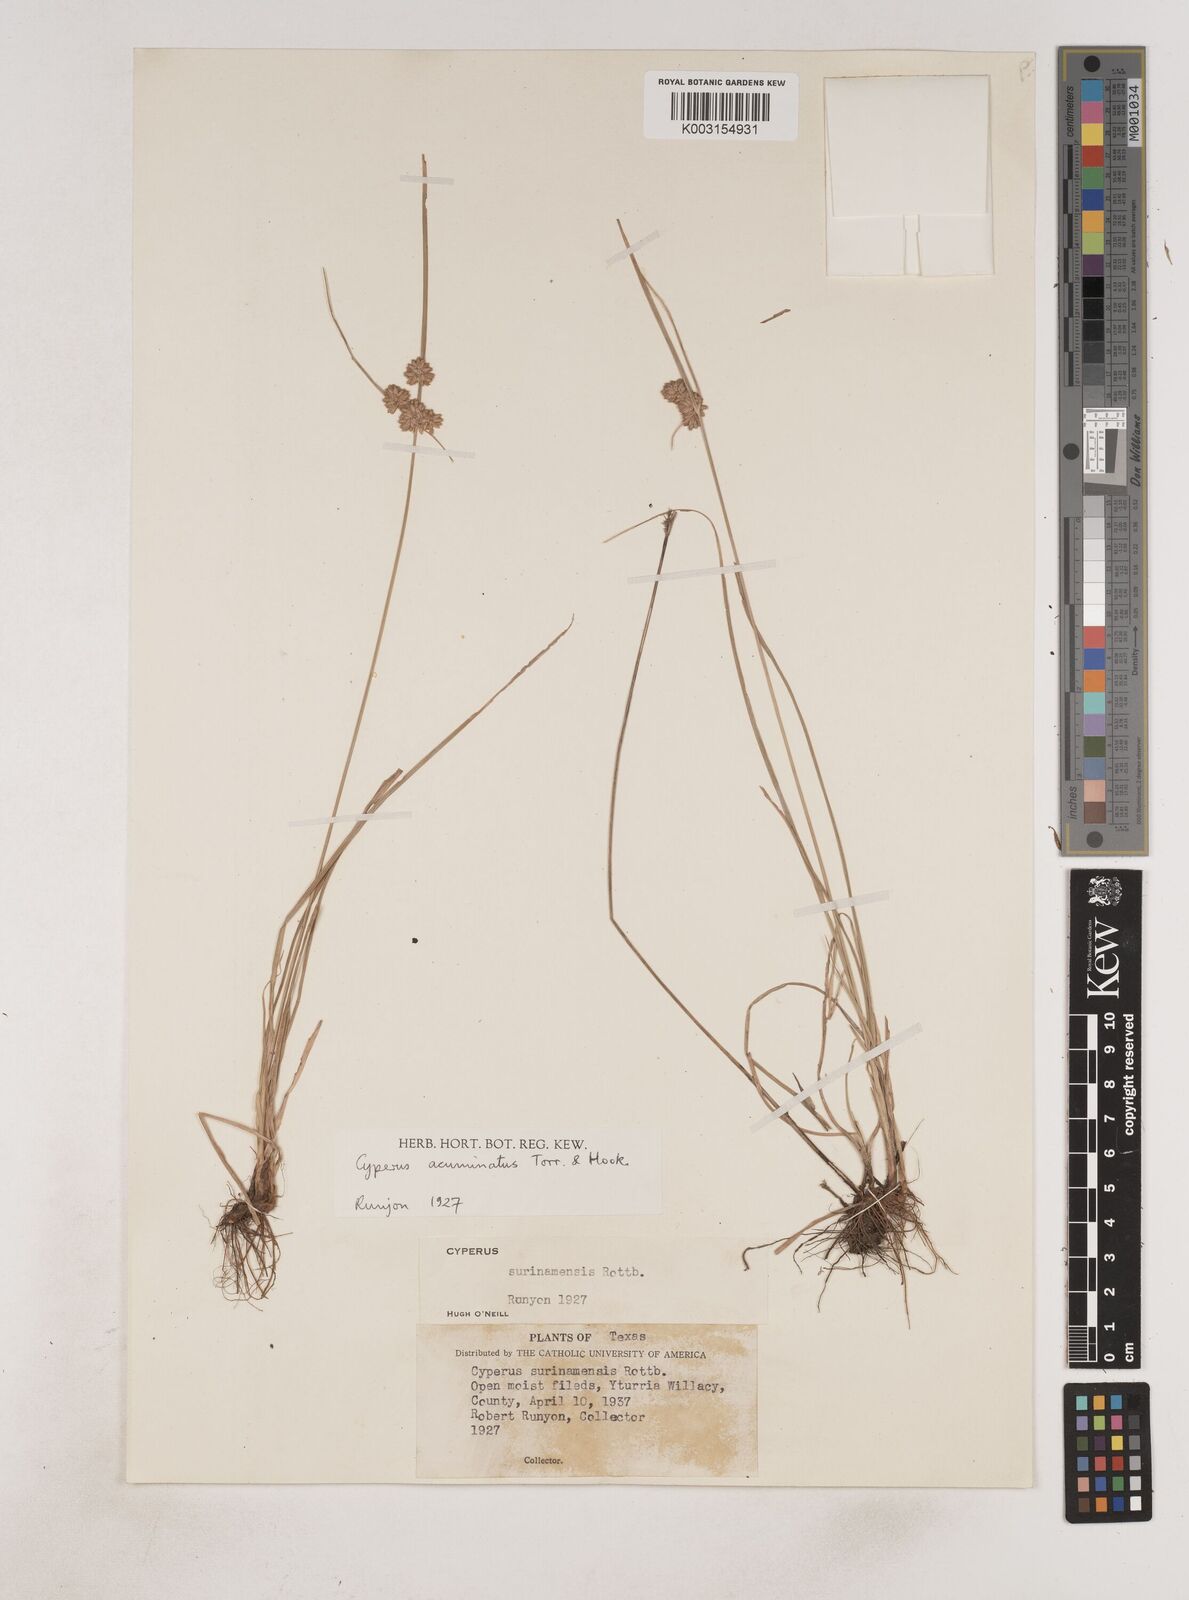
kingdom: Plantae
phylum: Tracheophyta
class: Liliopsida
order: Poales
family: Cyperaceae
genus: Cyperus
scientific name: Cyperus acuminatus
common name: Short-pointed cyperus
